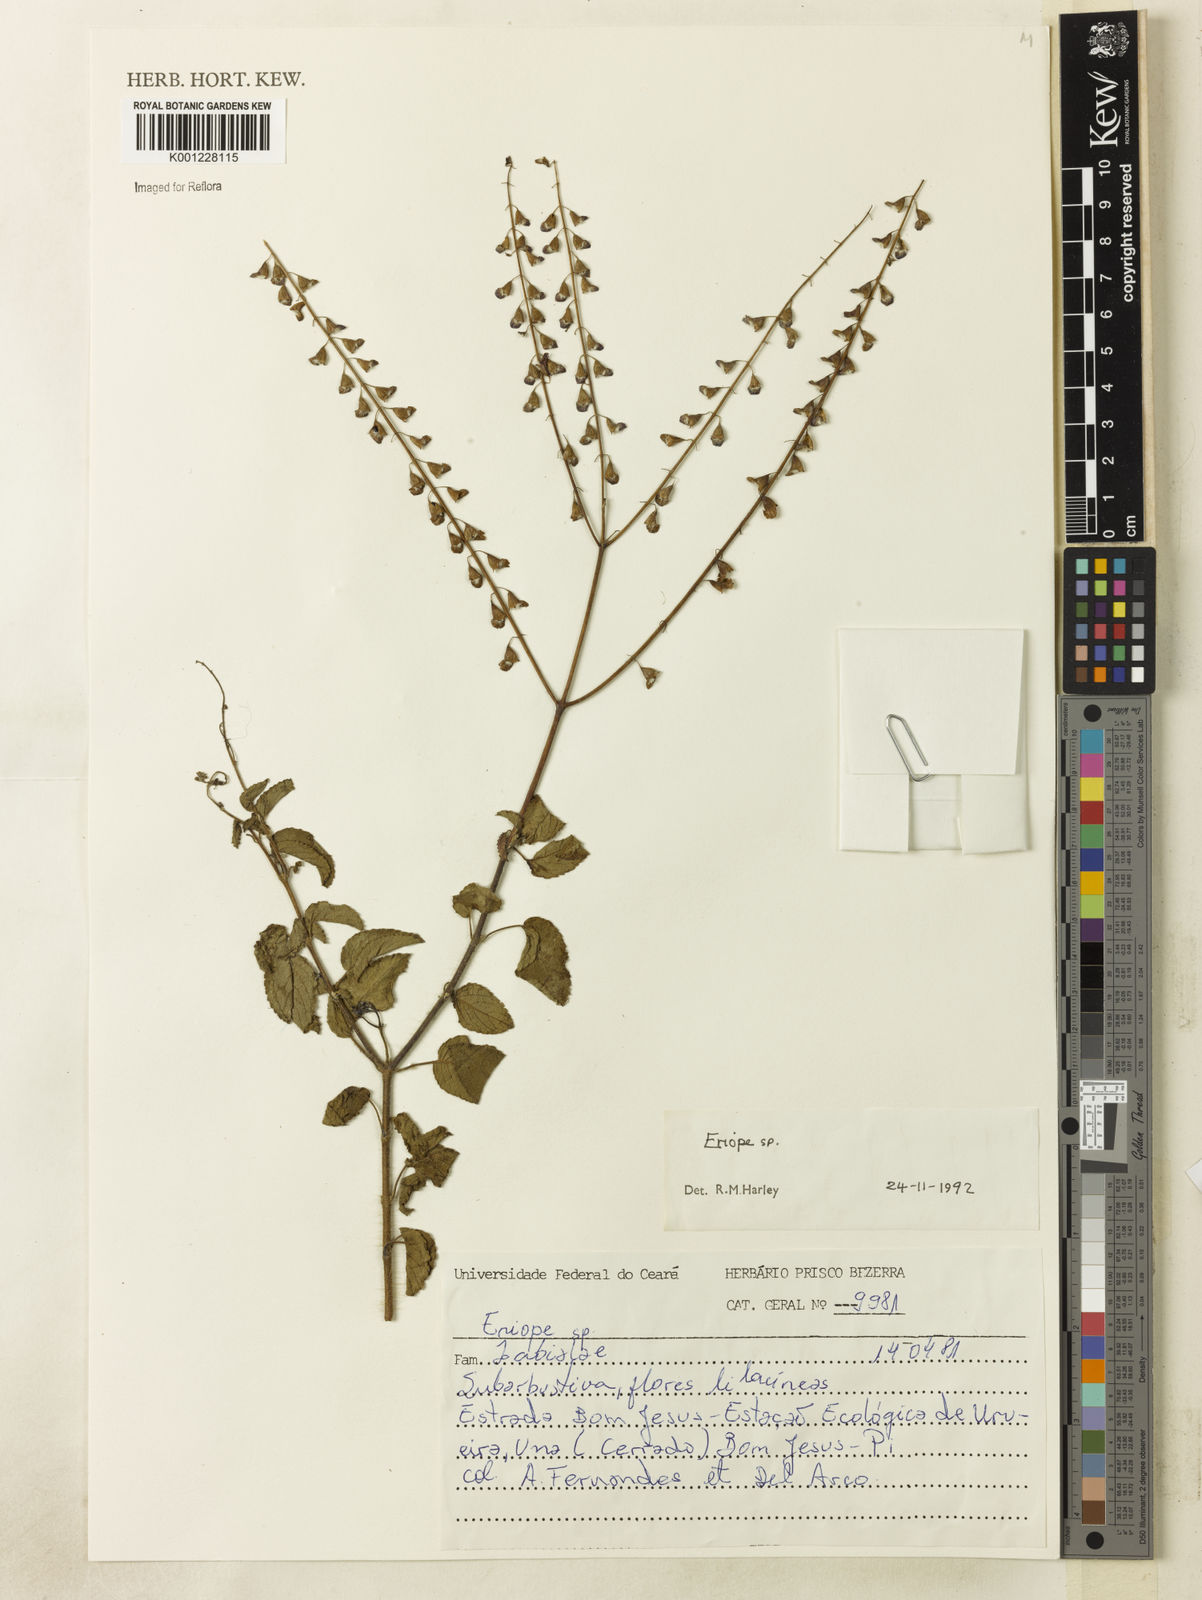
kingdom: Plantae
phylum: Tracheophyta
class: Magnoliopsida
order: Lamiales
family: Lamiaceae
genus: Eriope
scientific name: Eriope
